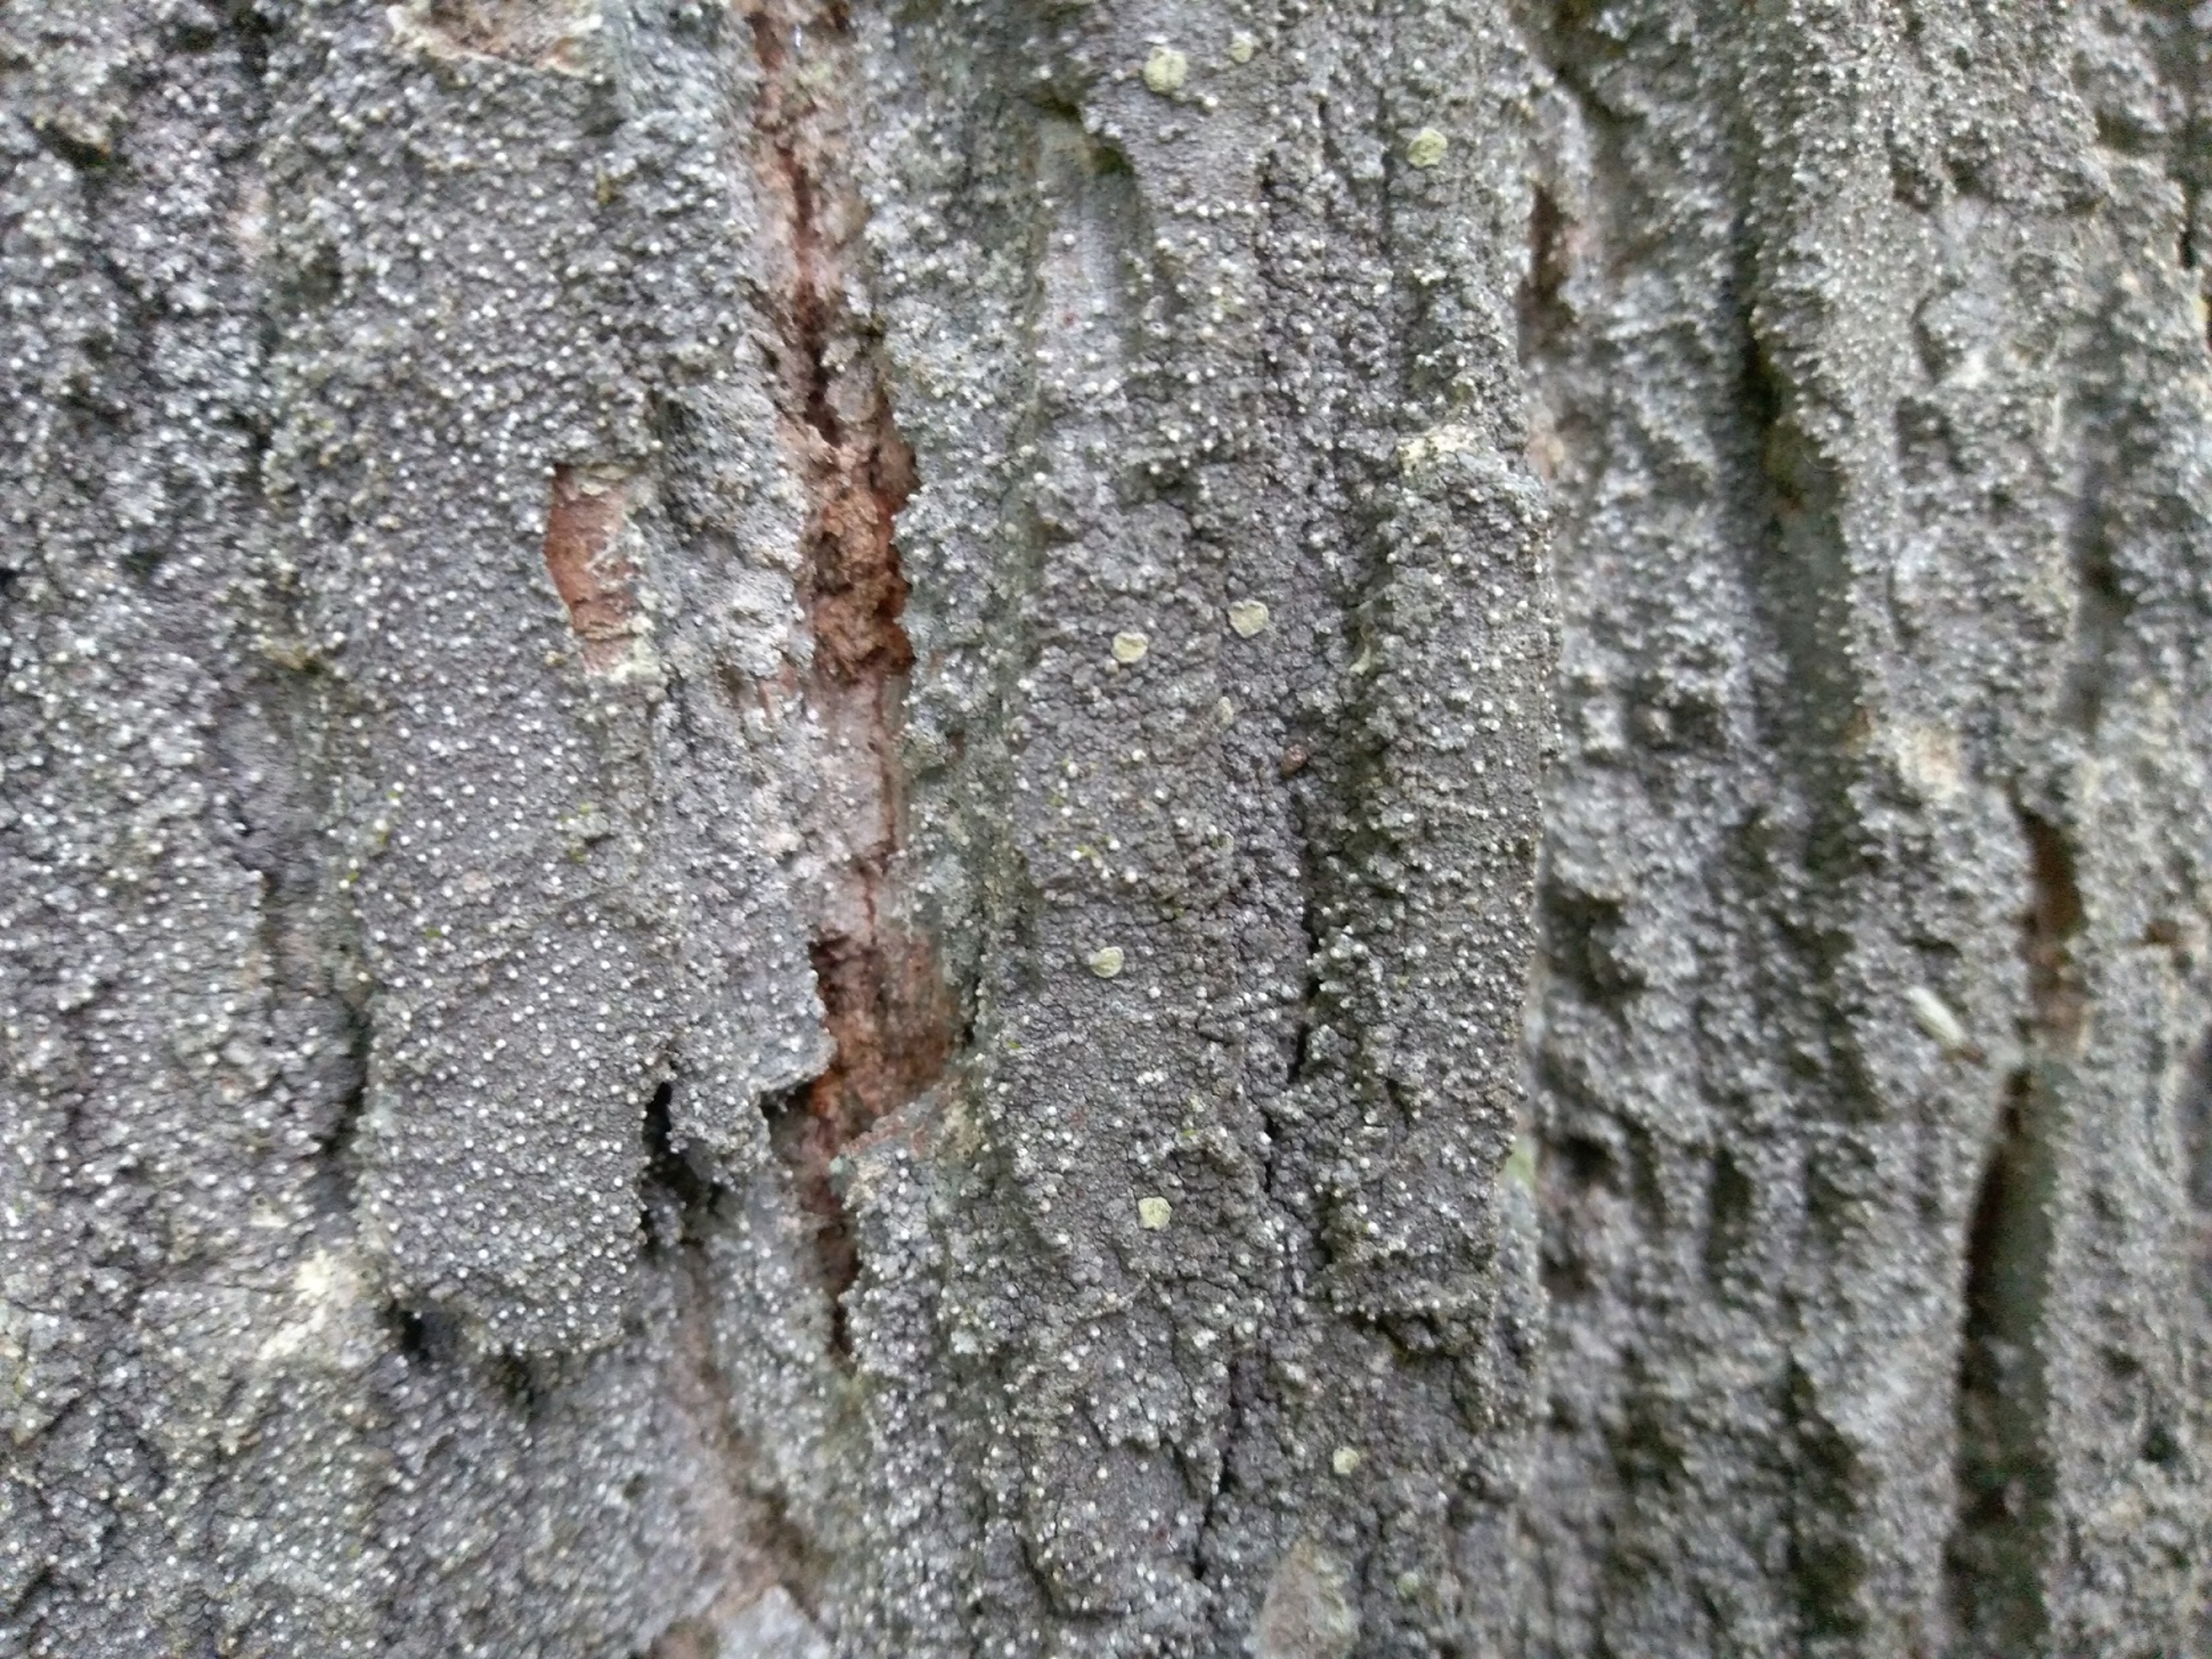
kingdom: Fungi
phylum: Ascomycota
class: Arthoniomycetes
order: Arthoniales
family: Roccellaceae
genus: Lecanactis
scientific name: Lecanactis abietina
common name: Grå dugskivelav
